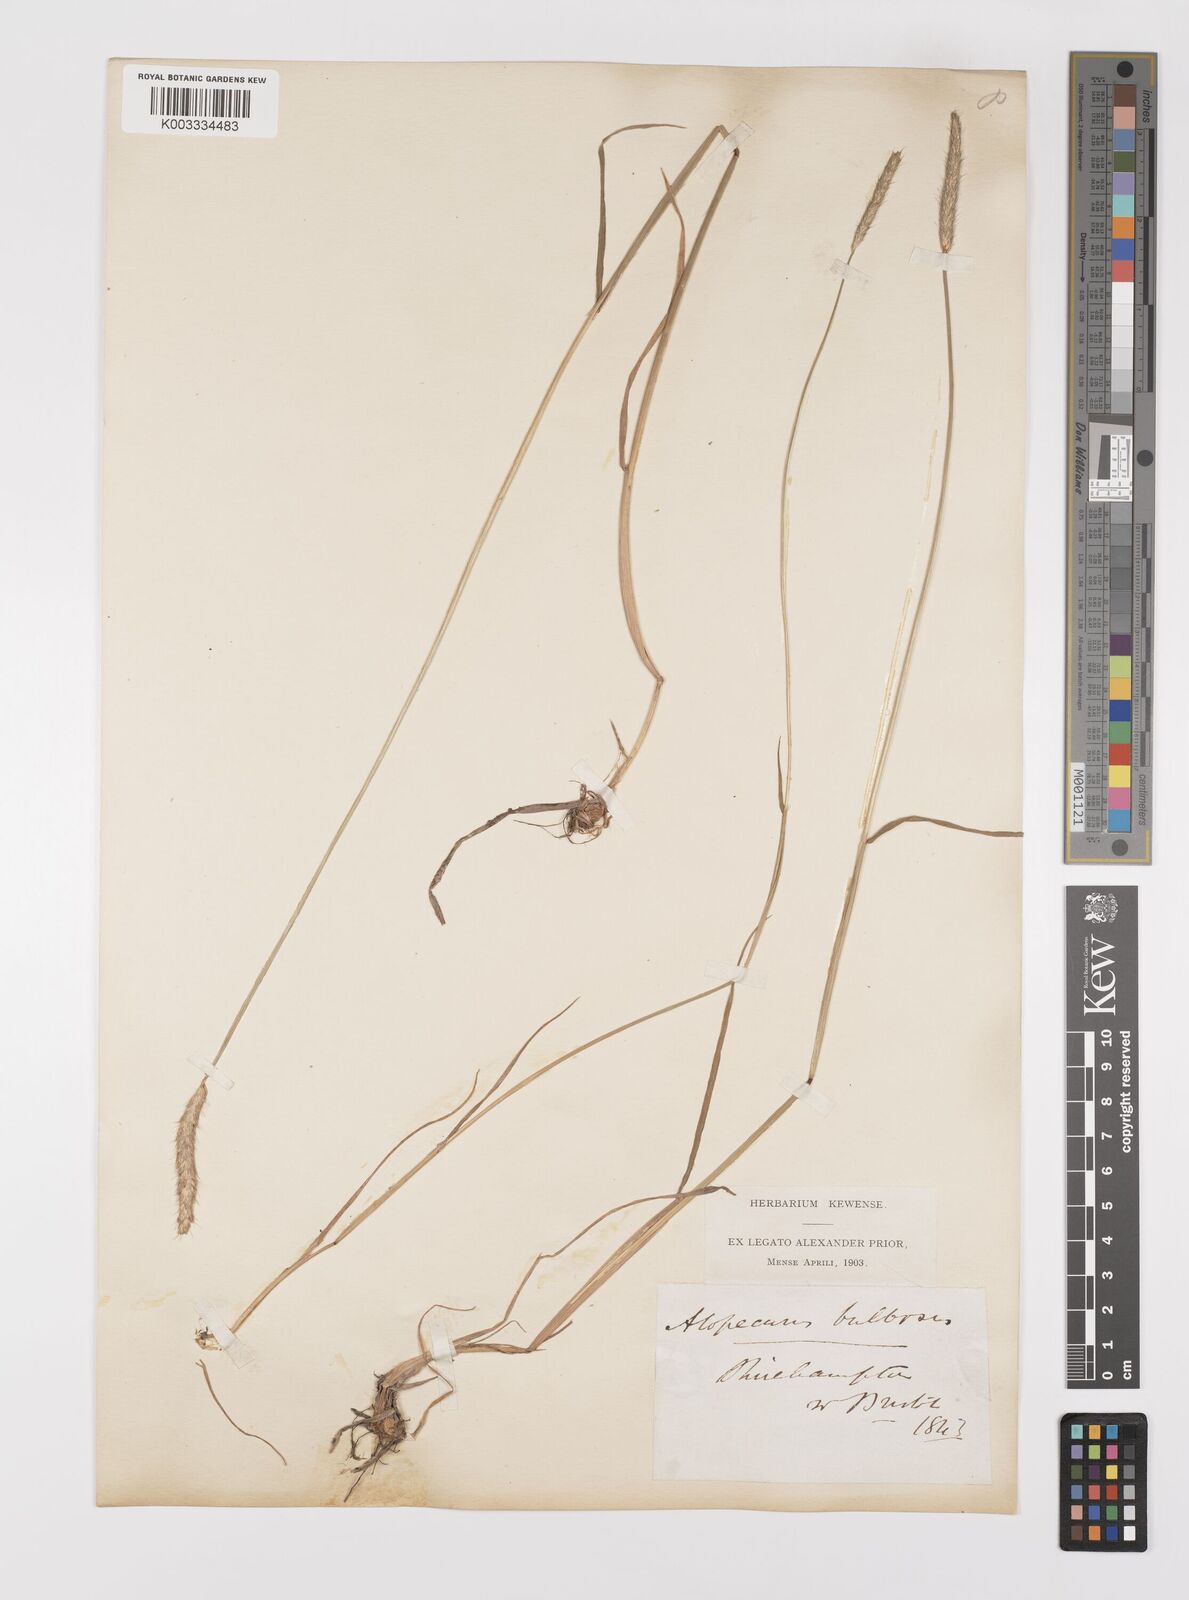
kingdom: Plantae
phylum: Tracheophyta
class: Liliopsida
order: Poales
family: Poaceae
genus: Alopecurus
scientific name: Alopecurus bulbosus
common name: Bulbous foxtail
